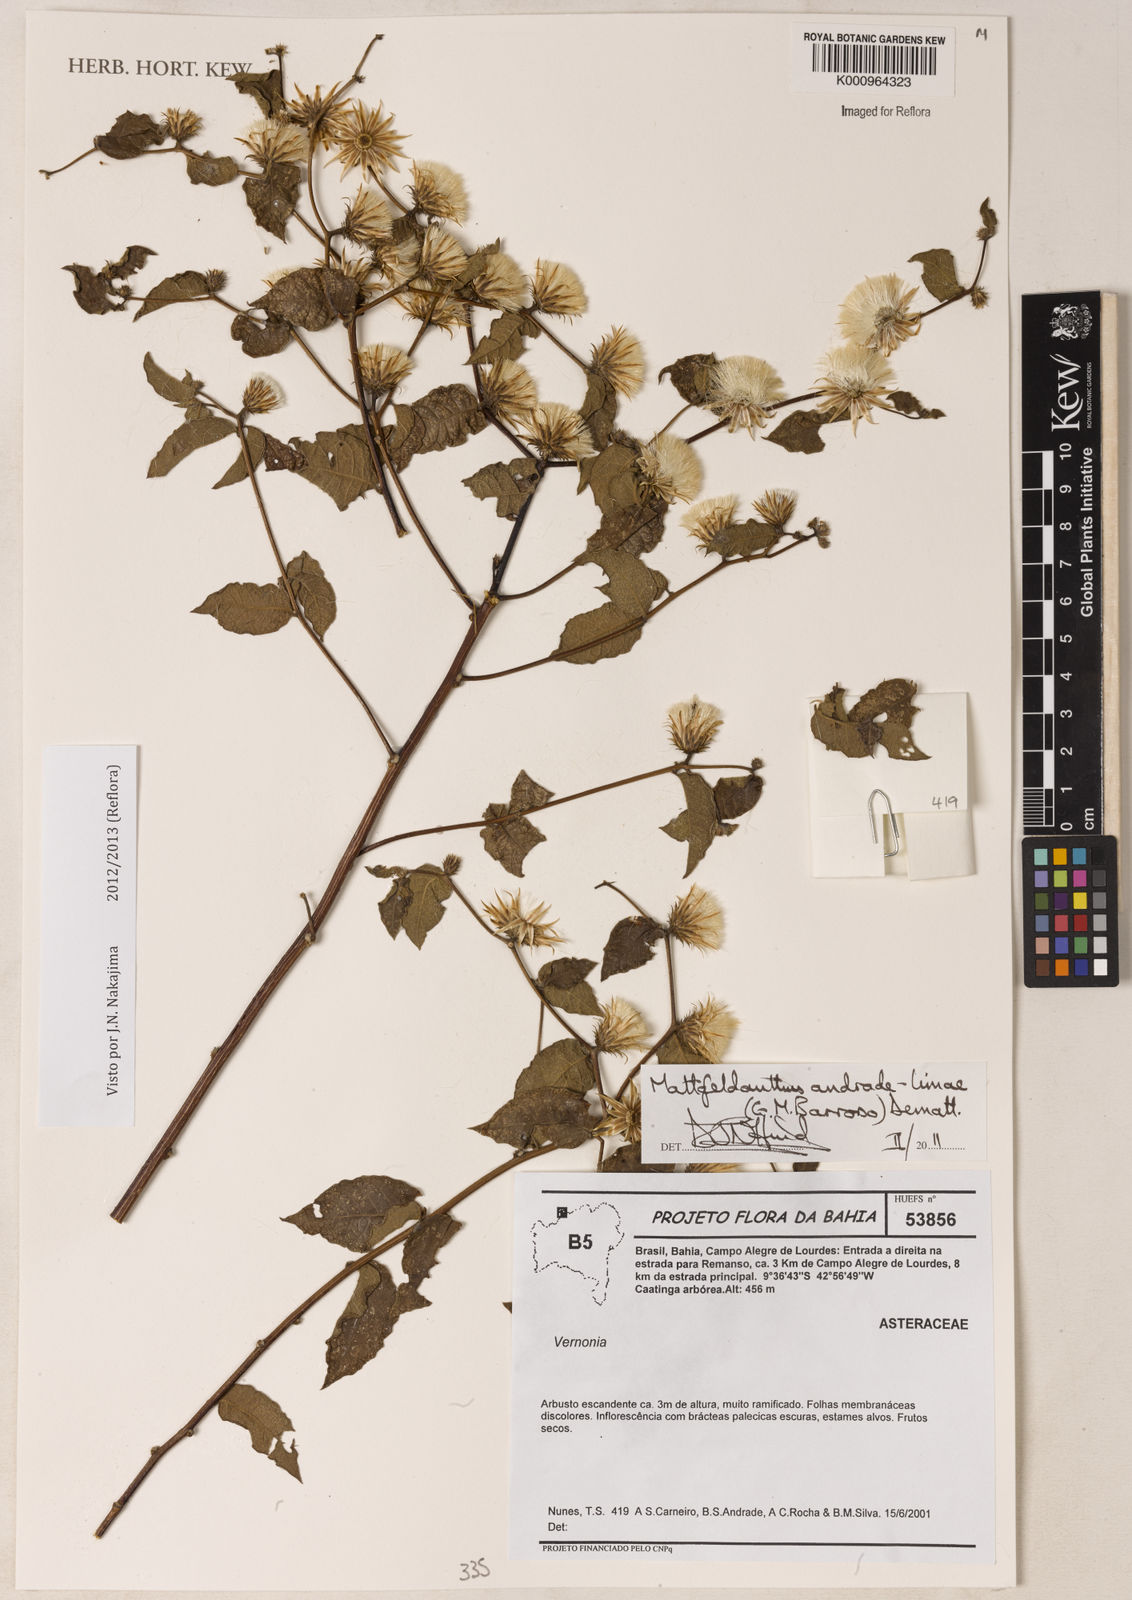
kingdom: Plantae
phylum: Tracheophyta
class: Magnoliopsida
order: Asterales
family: Asteraceae
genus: Mattfeldanthus
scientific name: Mattfeldanthus andrade-limae
